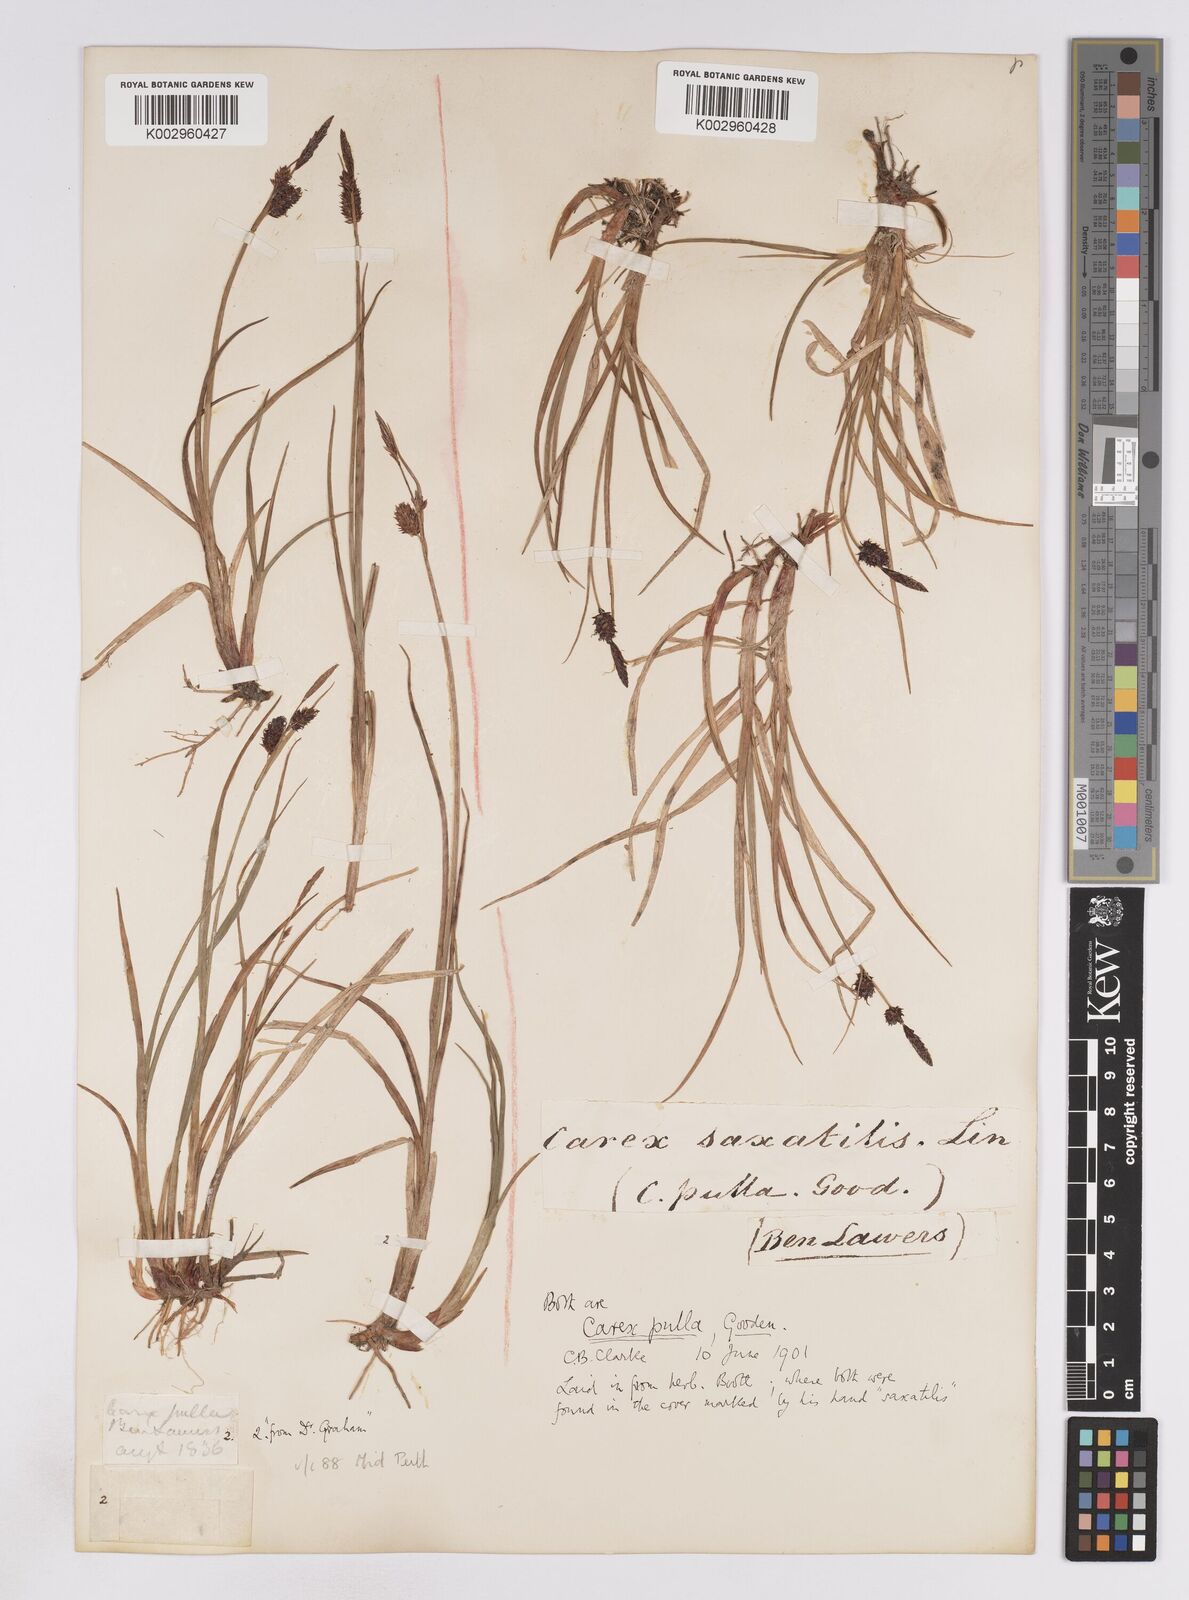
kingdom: Plantae
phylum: Tracheophyta
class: Liliopsida
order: Poales
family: Cyperaceae
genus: Carex
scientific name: Carex saxatilis
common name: Russet sedge
